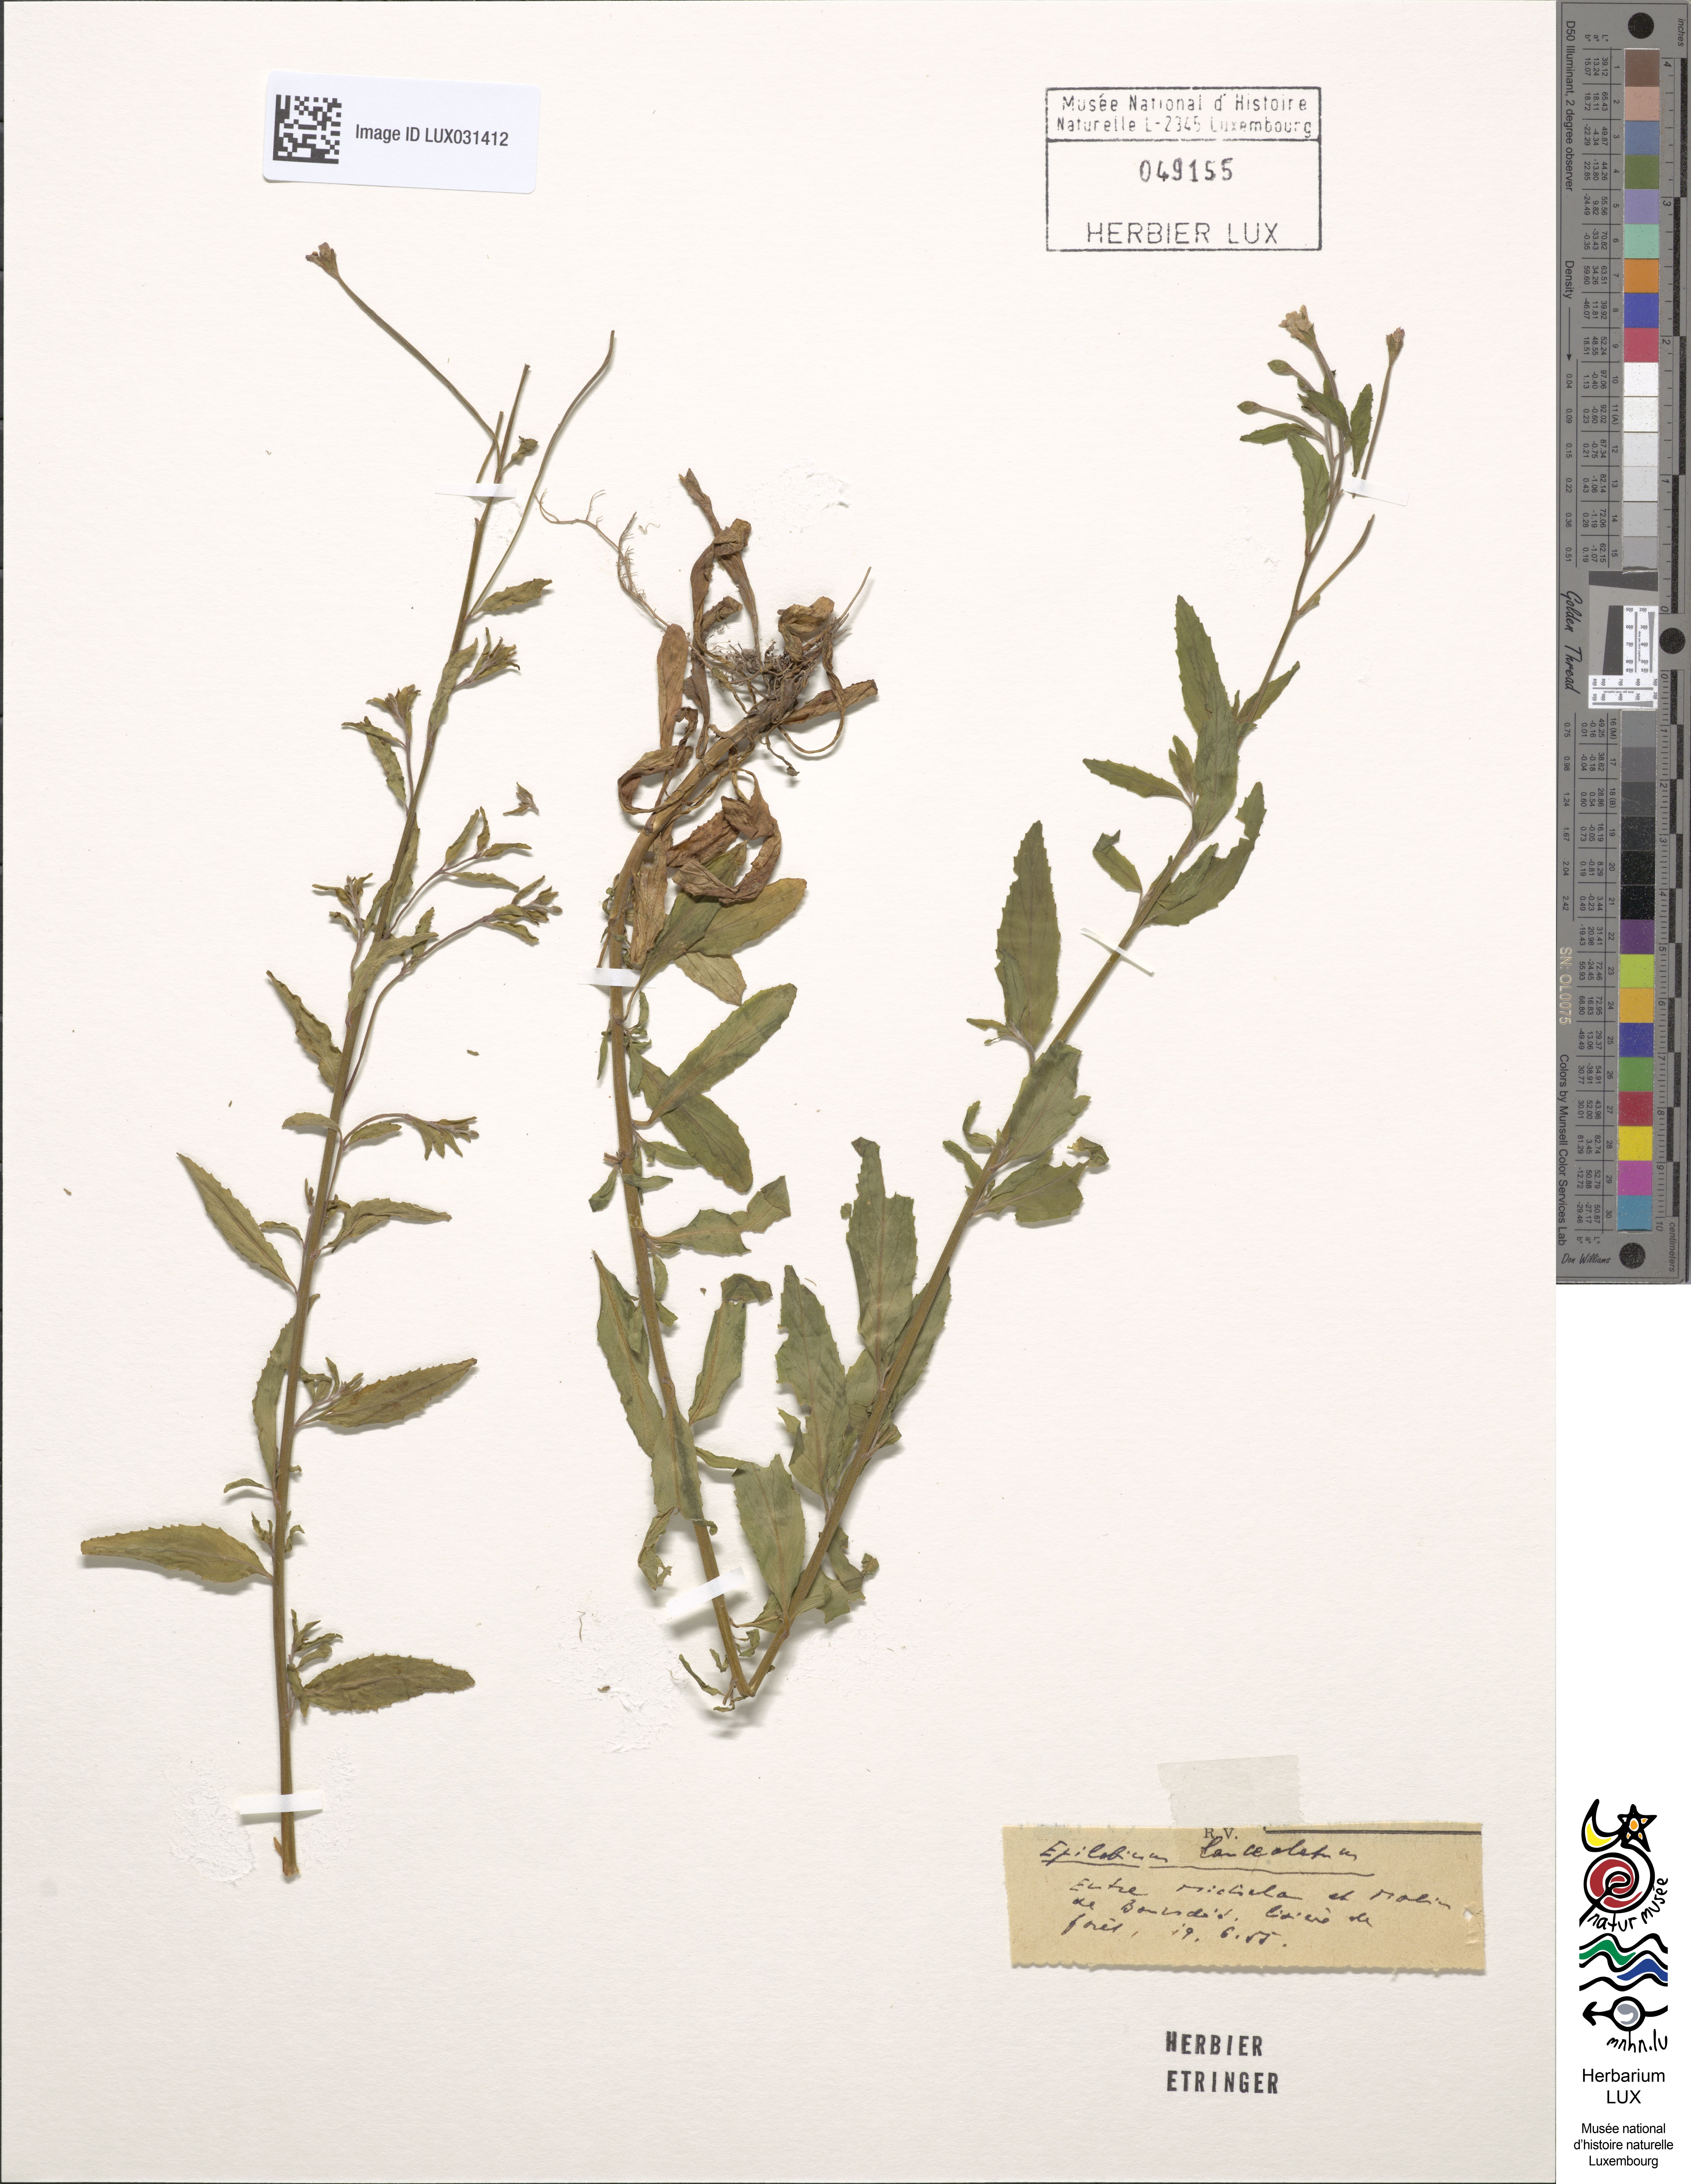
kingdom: Plantae
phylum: Tracheophyta
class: Magnoliopsida
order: Myrtales
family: Onagraceae
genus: Epilobium
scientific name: Epilobium lanceolatum
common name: Spear-leaved willowherb
